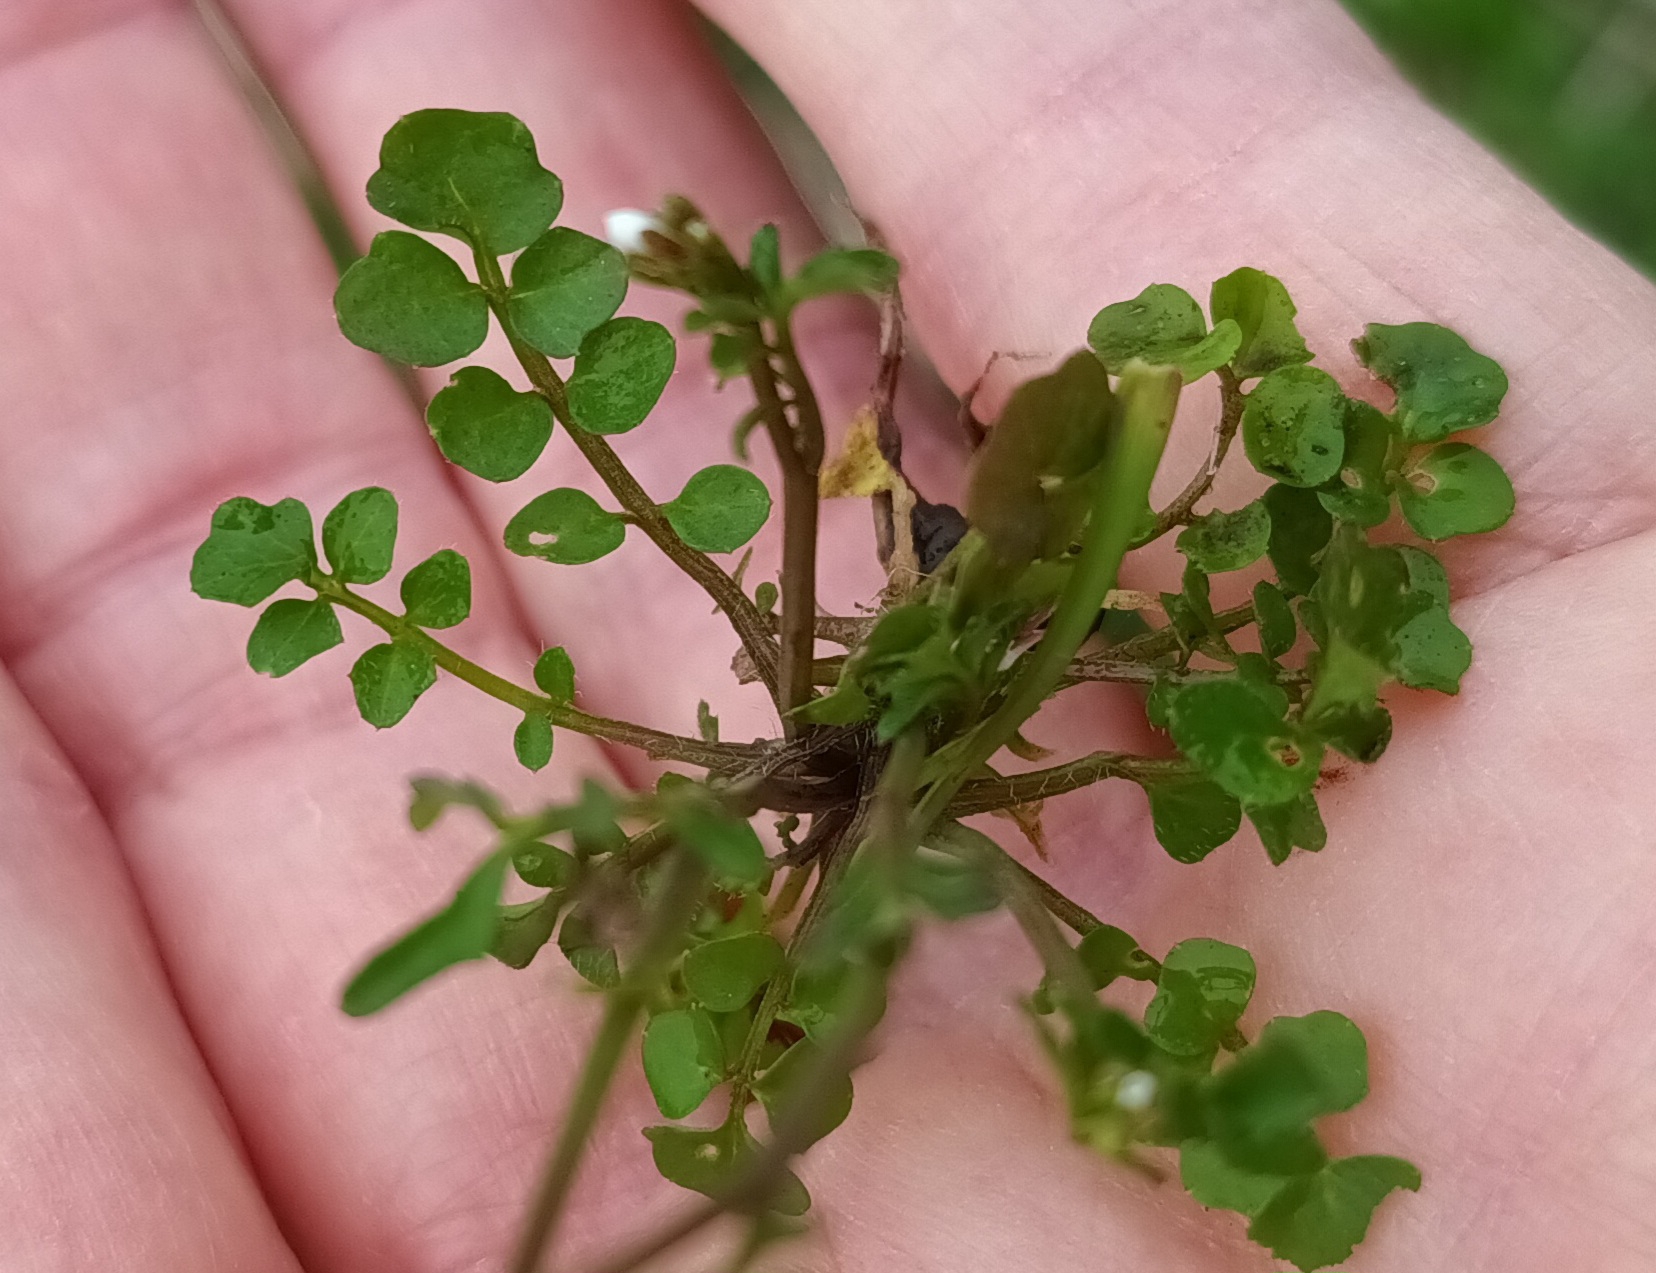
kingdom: Plantae
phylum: Tracheophyta
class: Magnoliopsida
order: Brassicales
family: Brassicaceae
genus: Cardamine
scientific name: Cardamine hirsuta
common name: Roset-springklap
